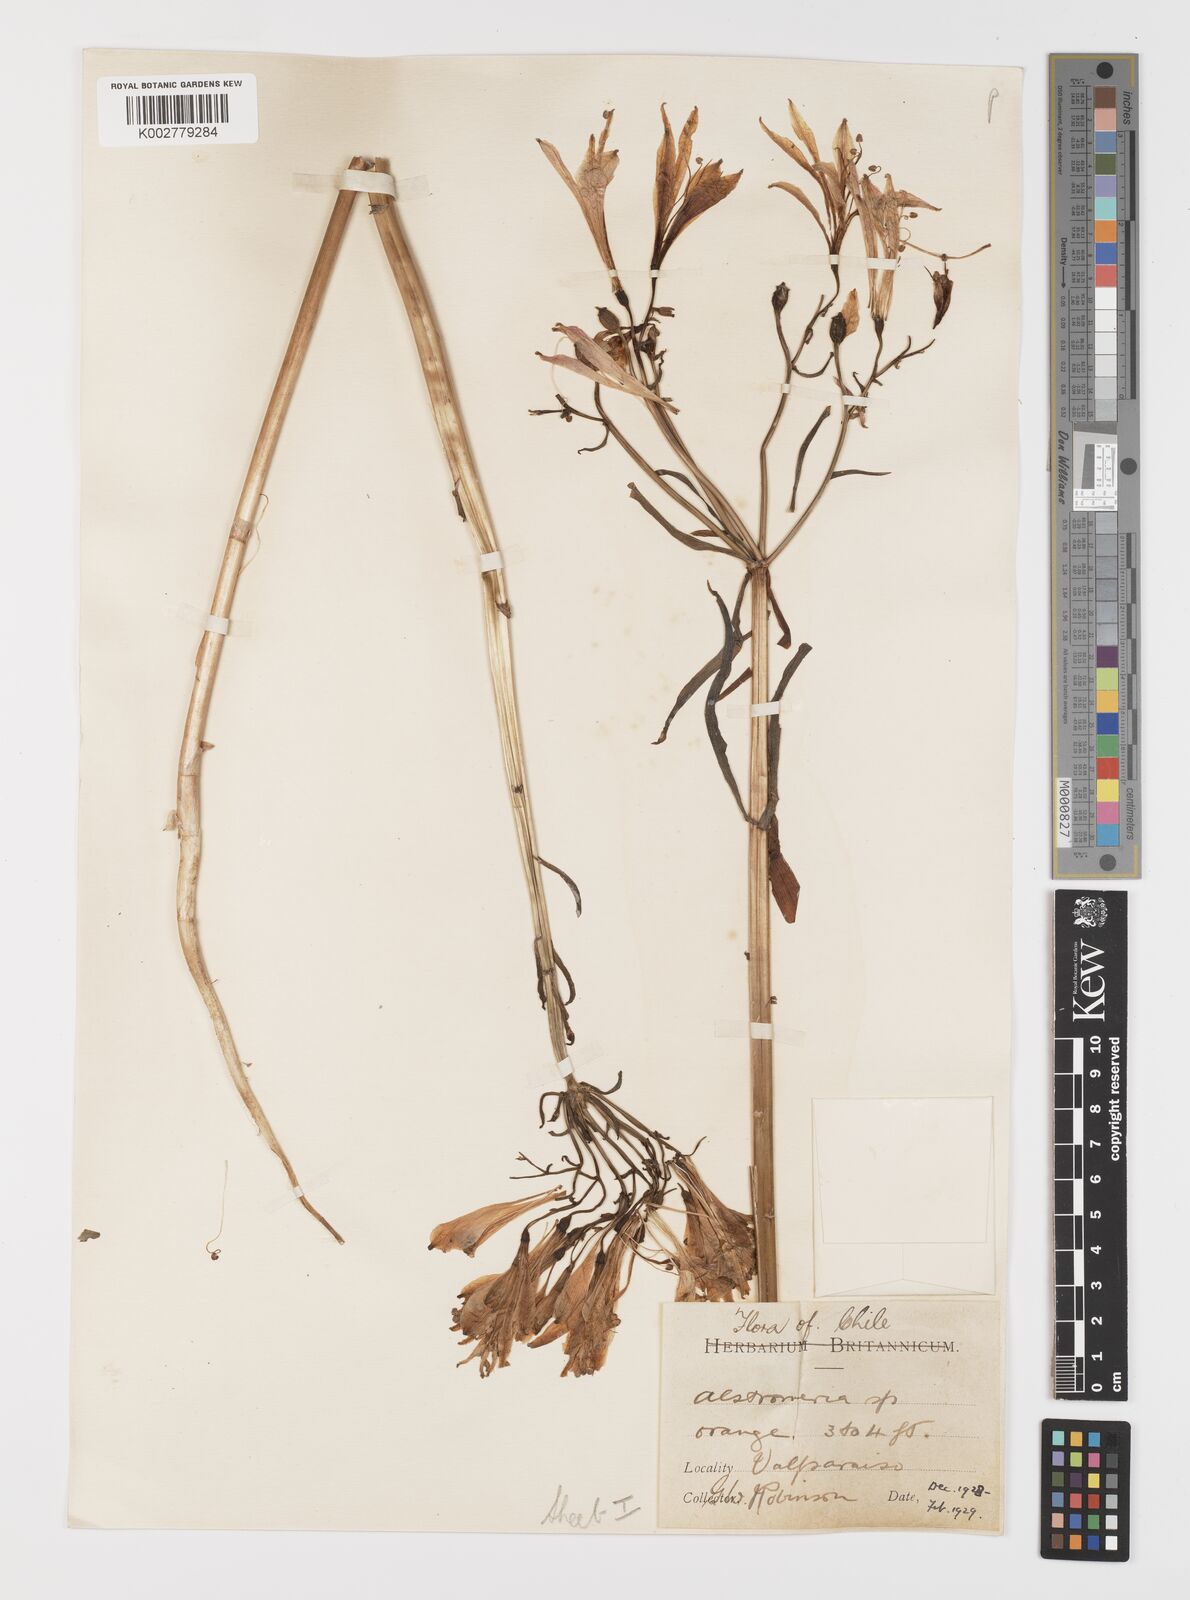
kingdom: Plantae
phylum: Tracheophyta
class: Liliopsida
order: Liliales
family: Alstroemeriaceae
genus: Alstroemeria
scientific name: Alstroemeria ligtu
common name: St. martin's-flower
